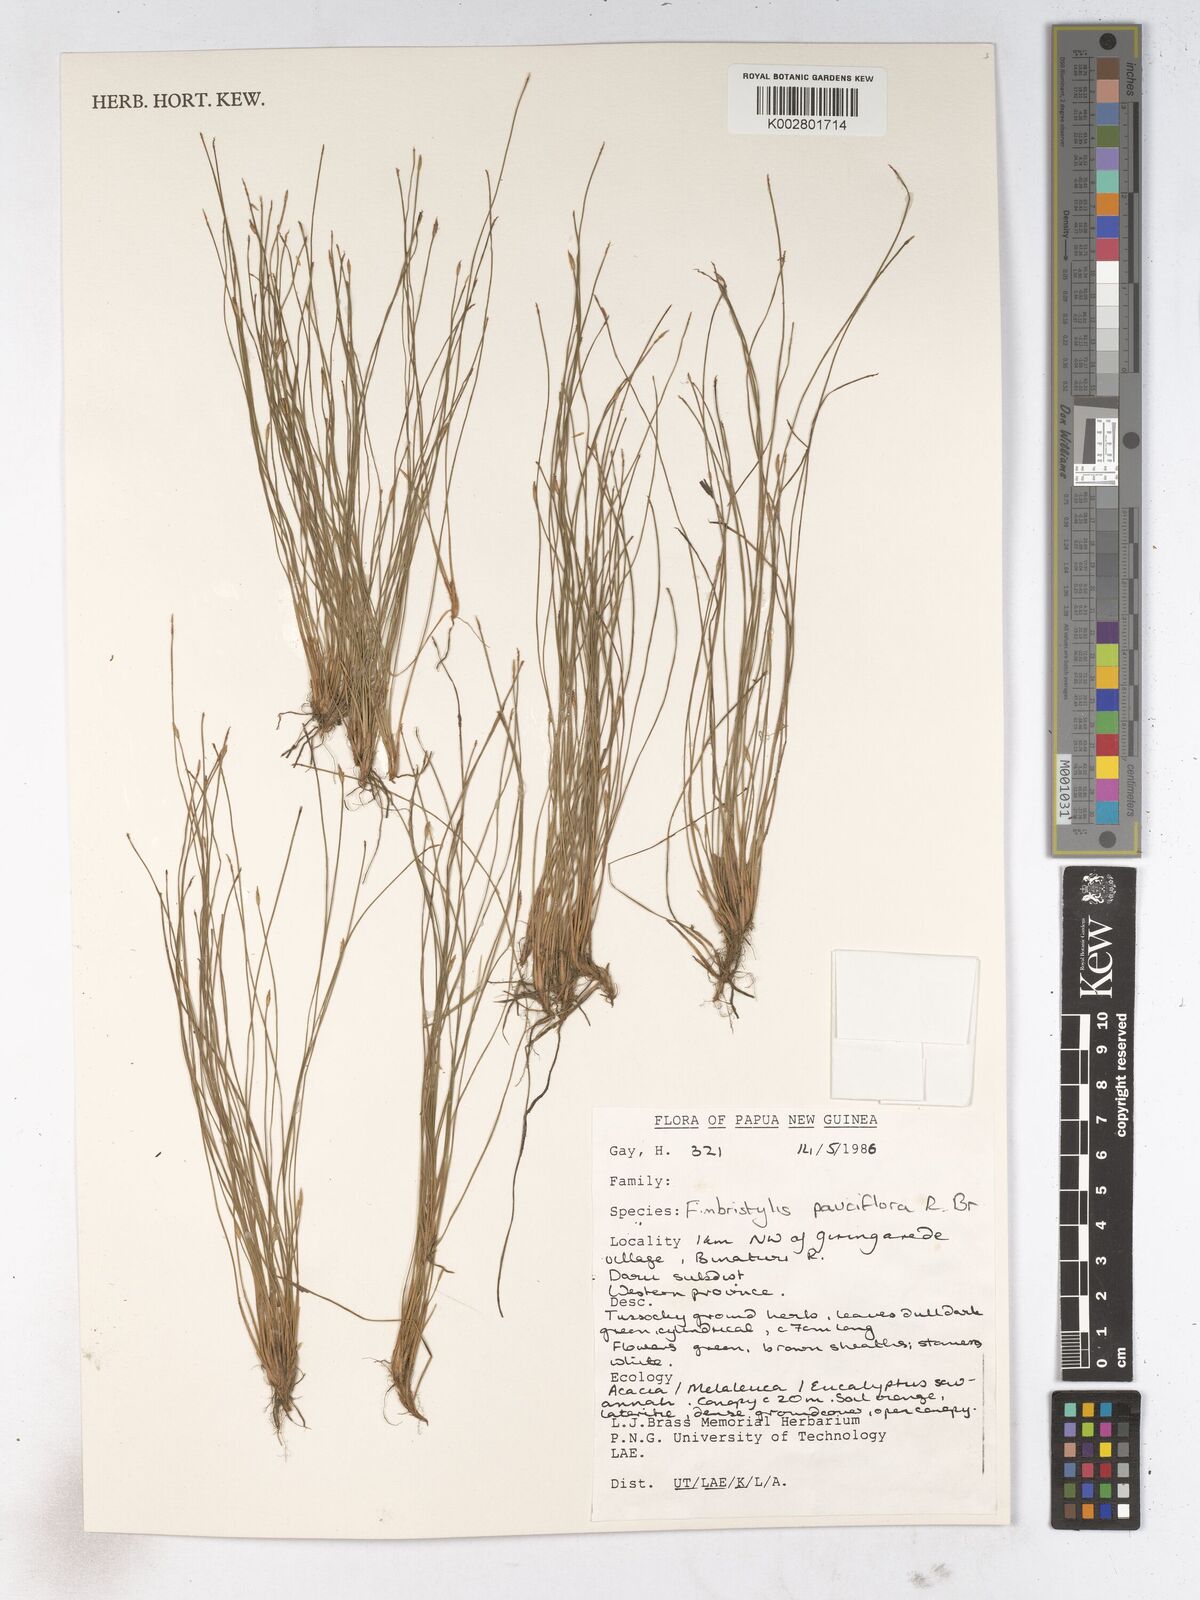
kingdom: Plantae
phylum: Tracheophyta
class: Liliopsida
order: Poales
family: Cyperaceae
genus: Fimbristylis
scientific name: Fimbristylis pauciflora
